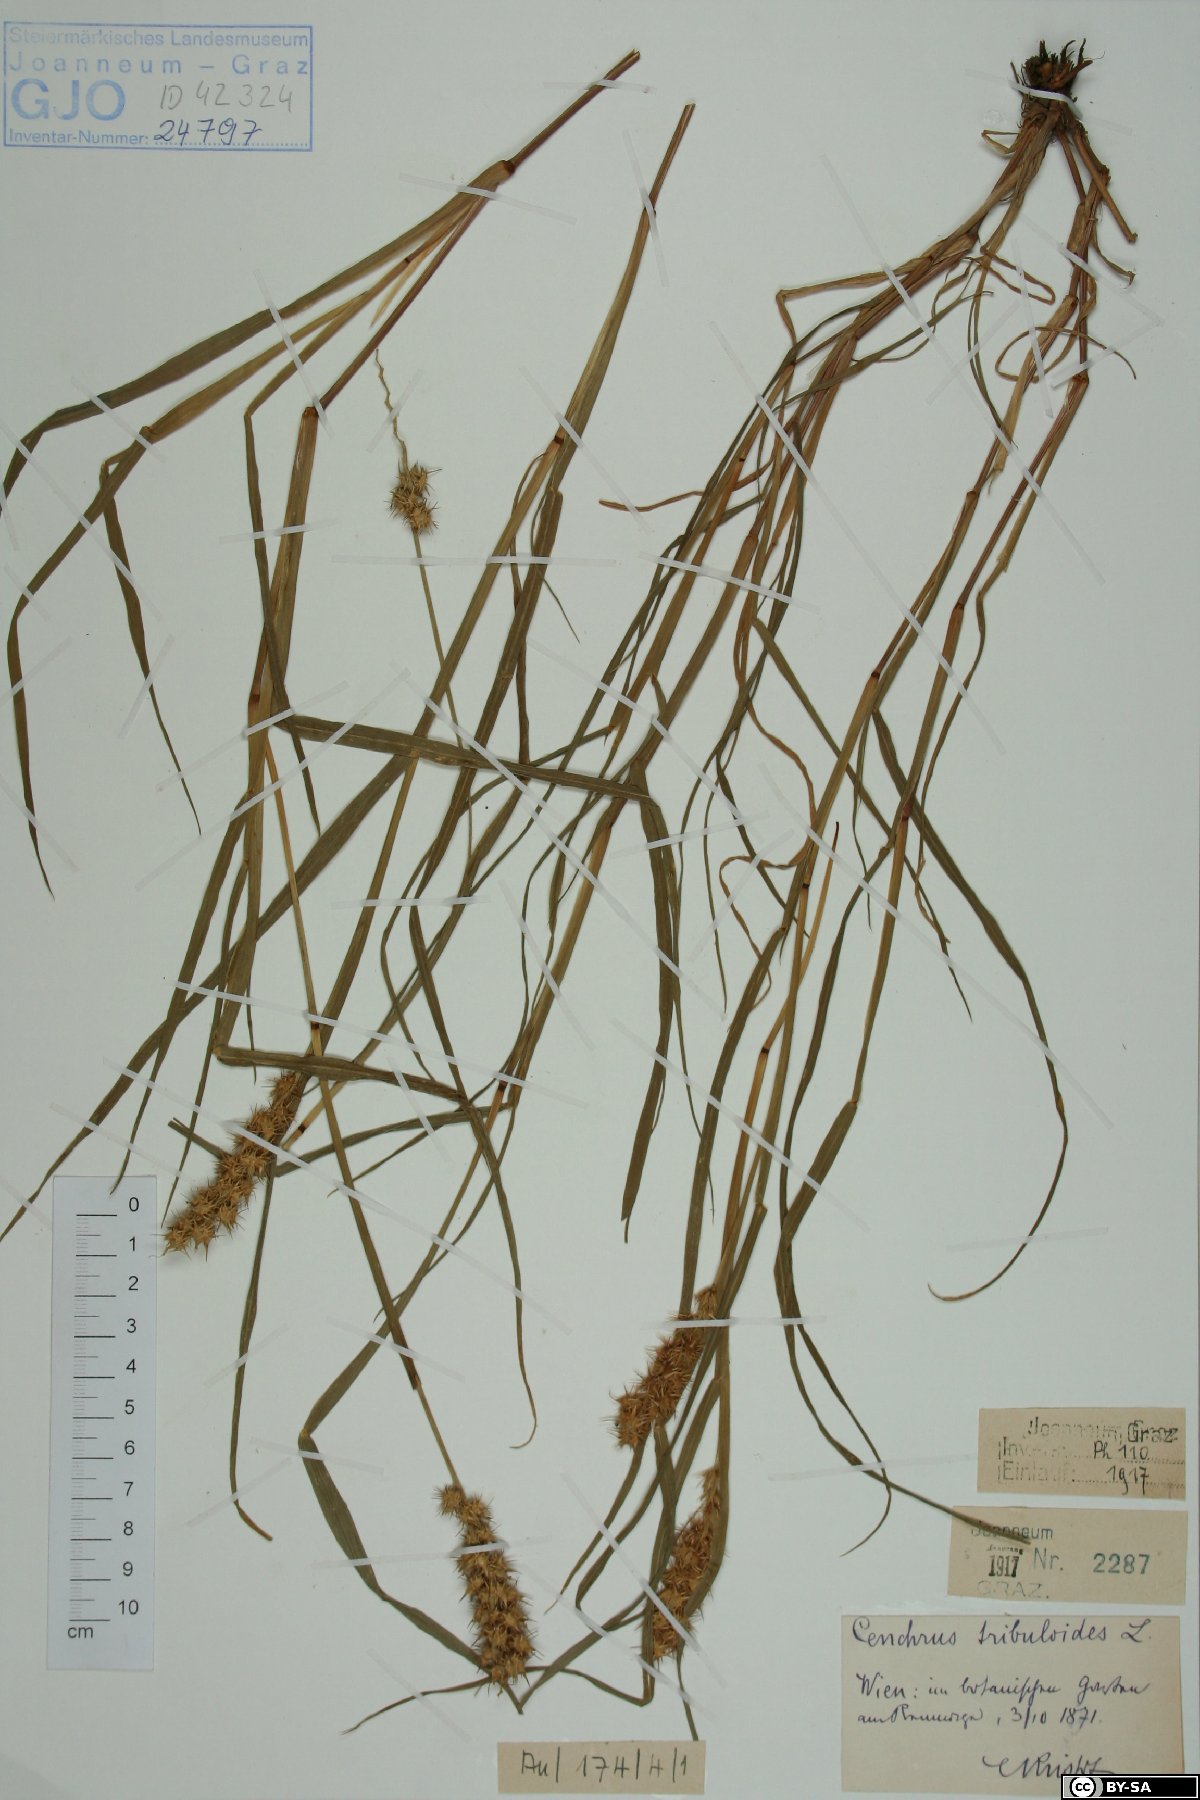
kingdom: Plantae
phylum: Tracheophyta
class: Liliopsida
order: Poales
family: Poaceae
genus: Cenchrus
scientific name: Cenchrus tribuloides
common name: Dune sandbur
